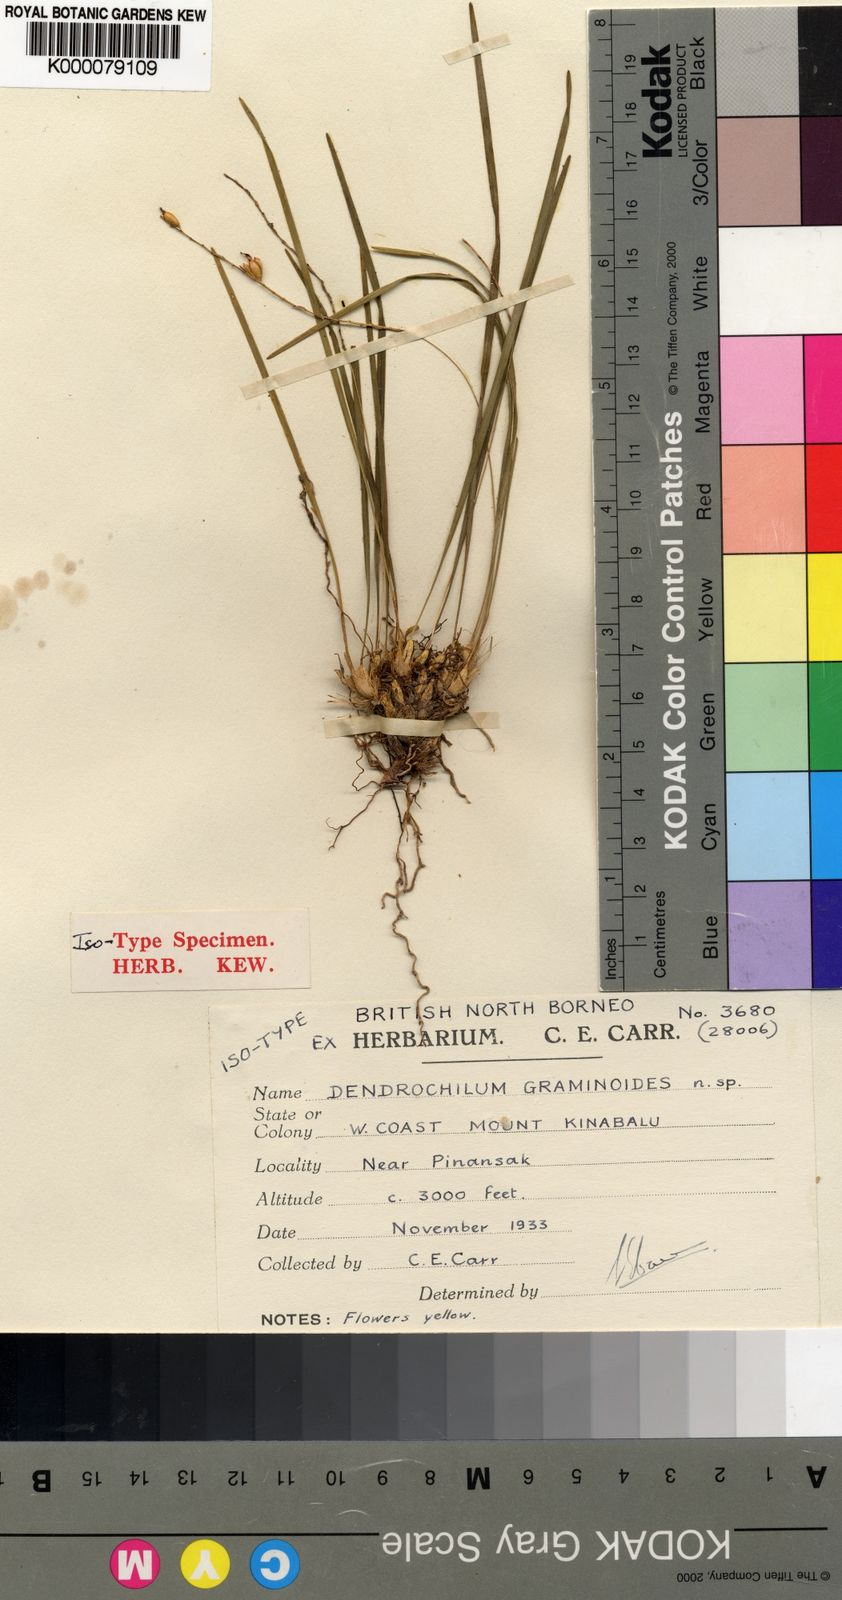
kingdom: Plantae
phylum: Tracheophyta
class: Liliopsida
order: Asparagales
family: Orchidaceae
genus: Coelogyne
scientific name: Coelogyne graminoides
